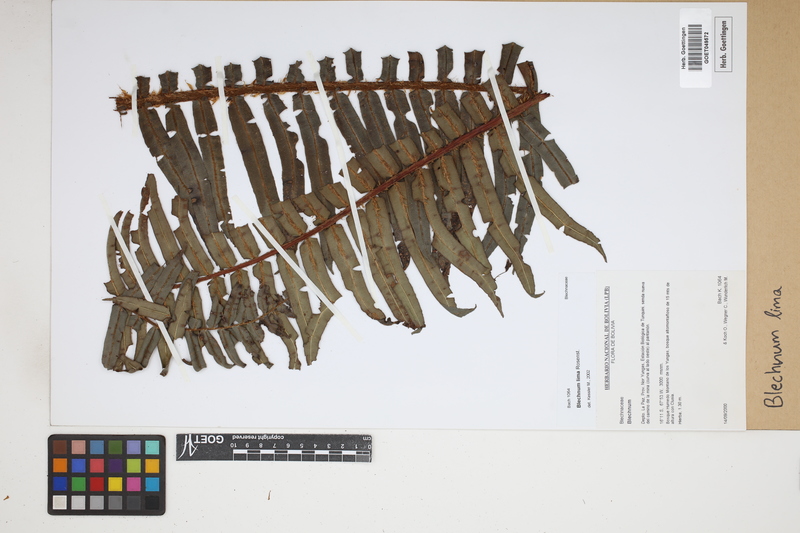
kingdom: Plantae
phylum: Tracheophyta
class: Polypodiopsida
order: Polypodiales
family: Blechnaceae
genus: Parablechnum
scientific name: Parablechnum lima
